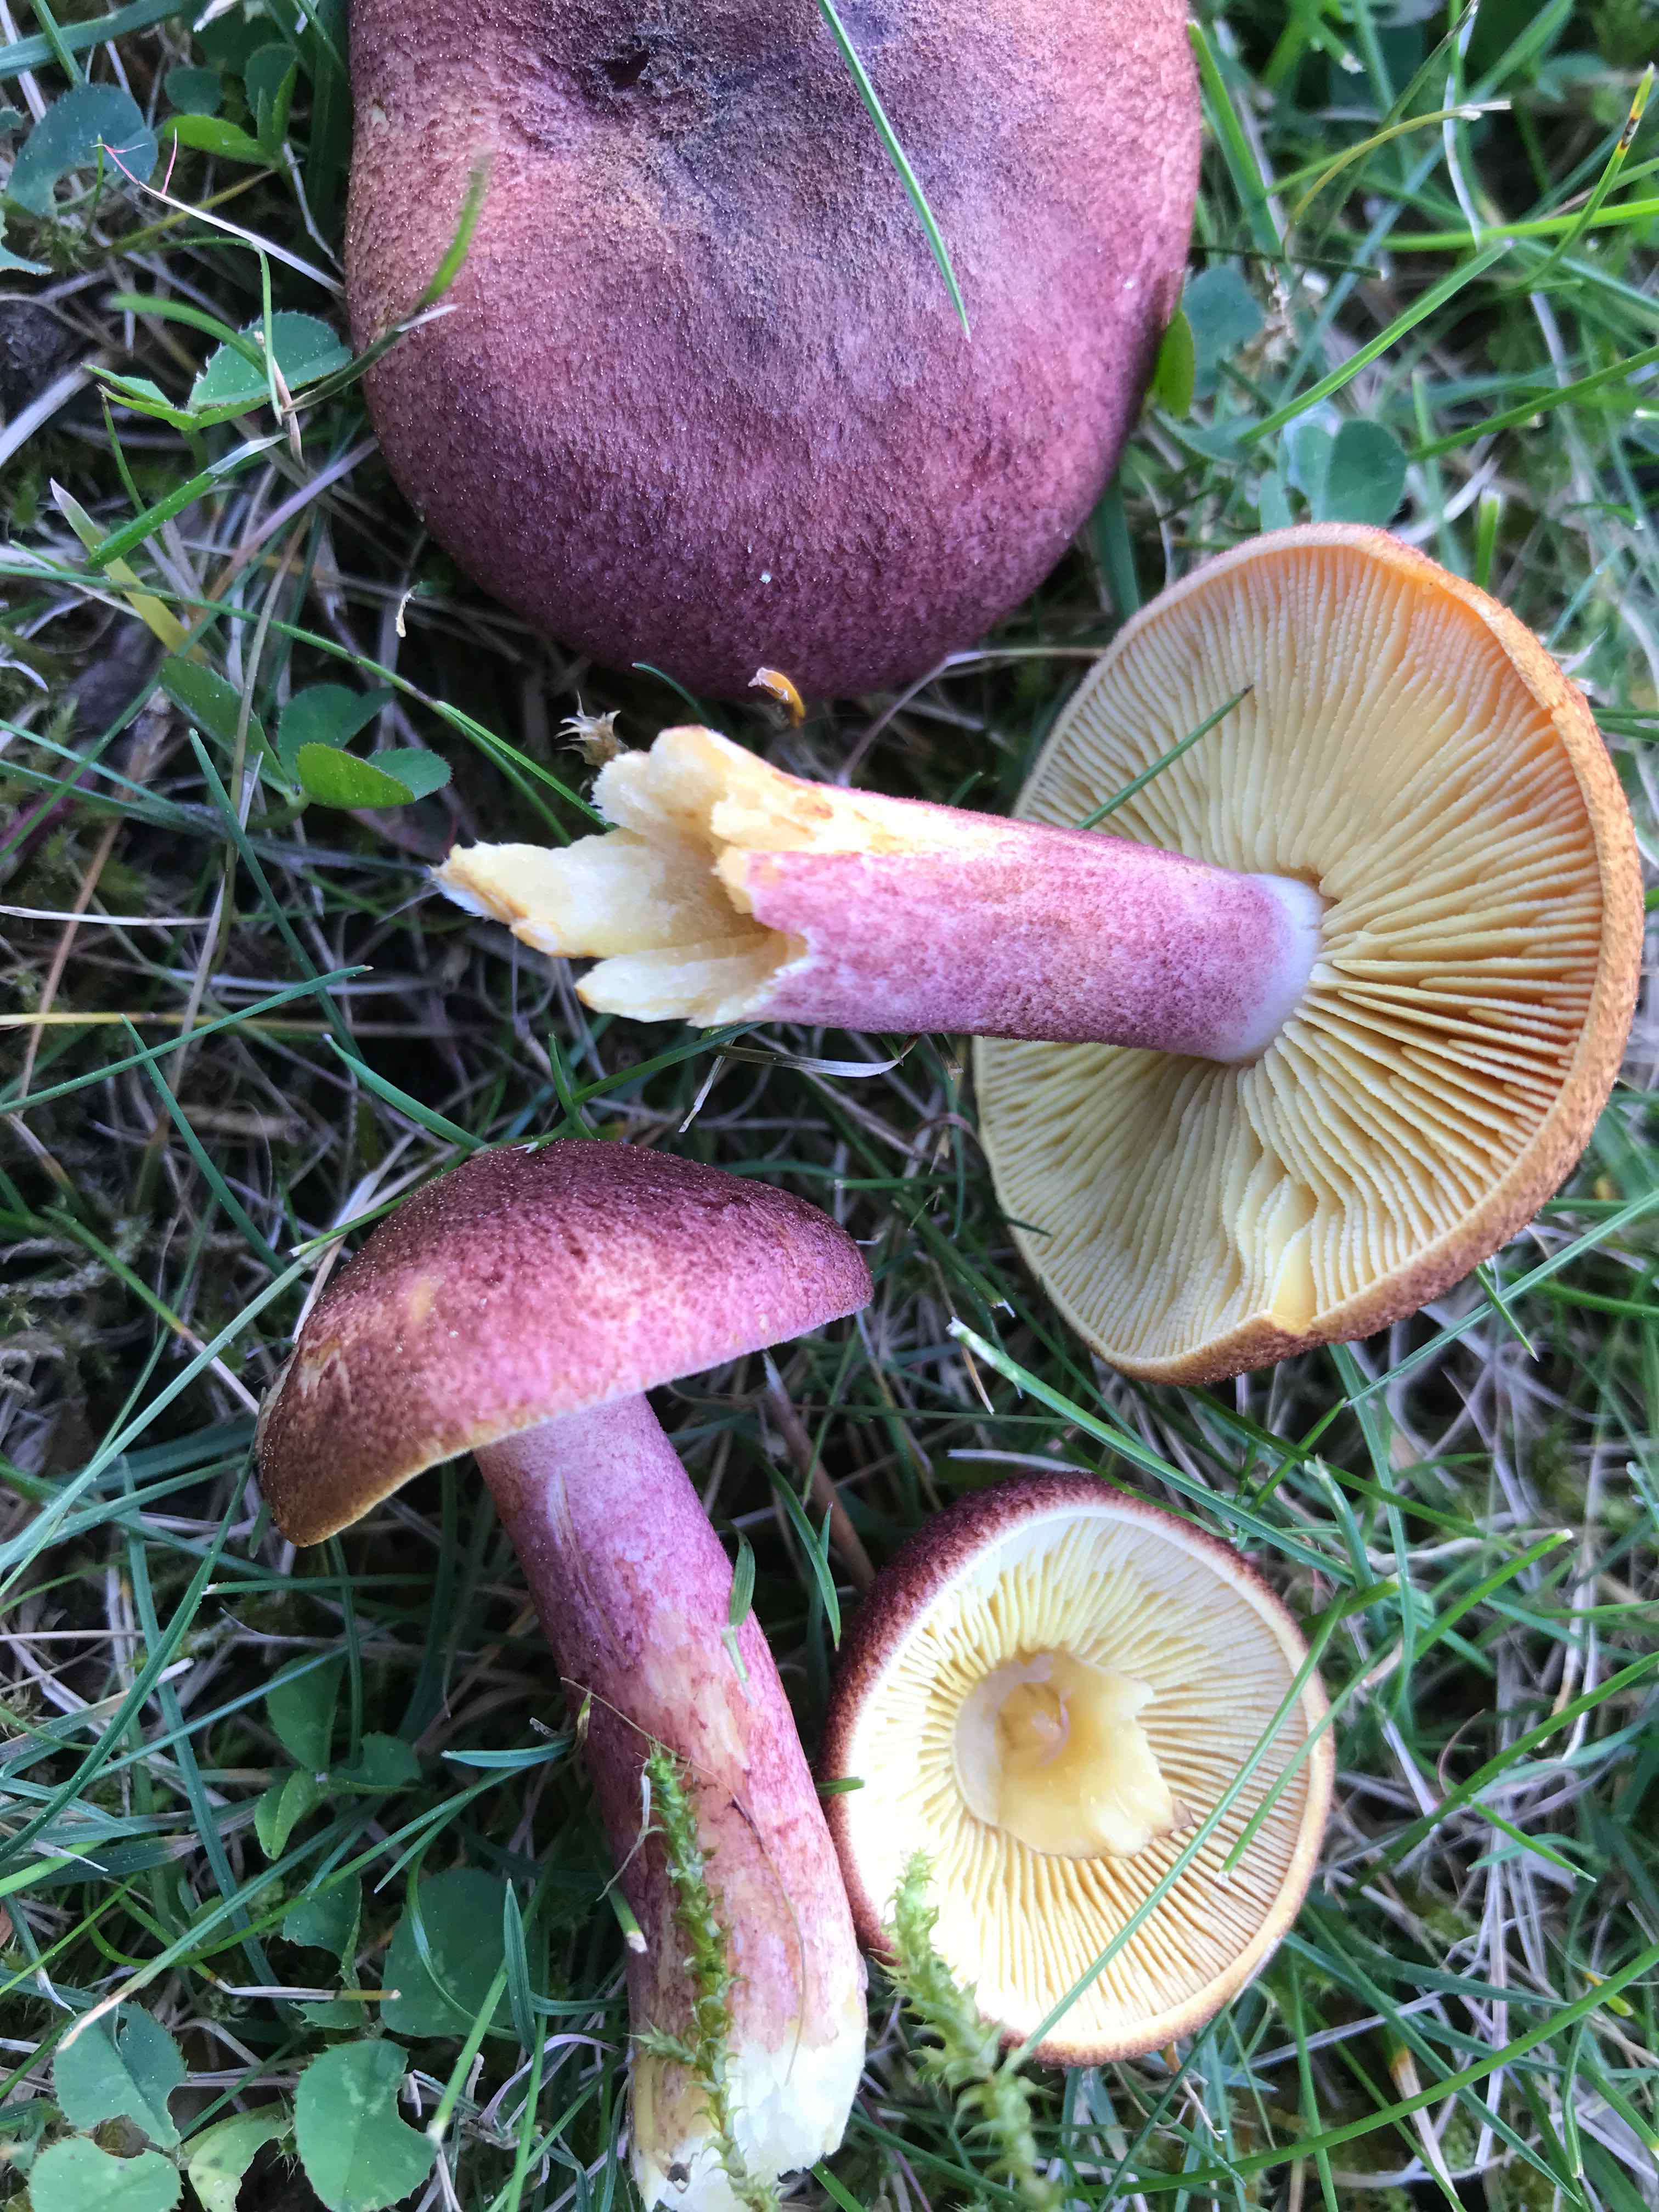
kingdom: Fungi
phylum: Basidiomycota
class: Agaricomycetes
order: Agaricales
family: Tricholomataceae
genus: Tricholomopsis
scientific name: Tricholomopsis rutilans
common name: purpur-væbnerhat
